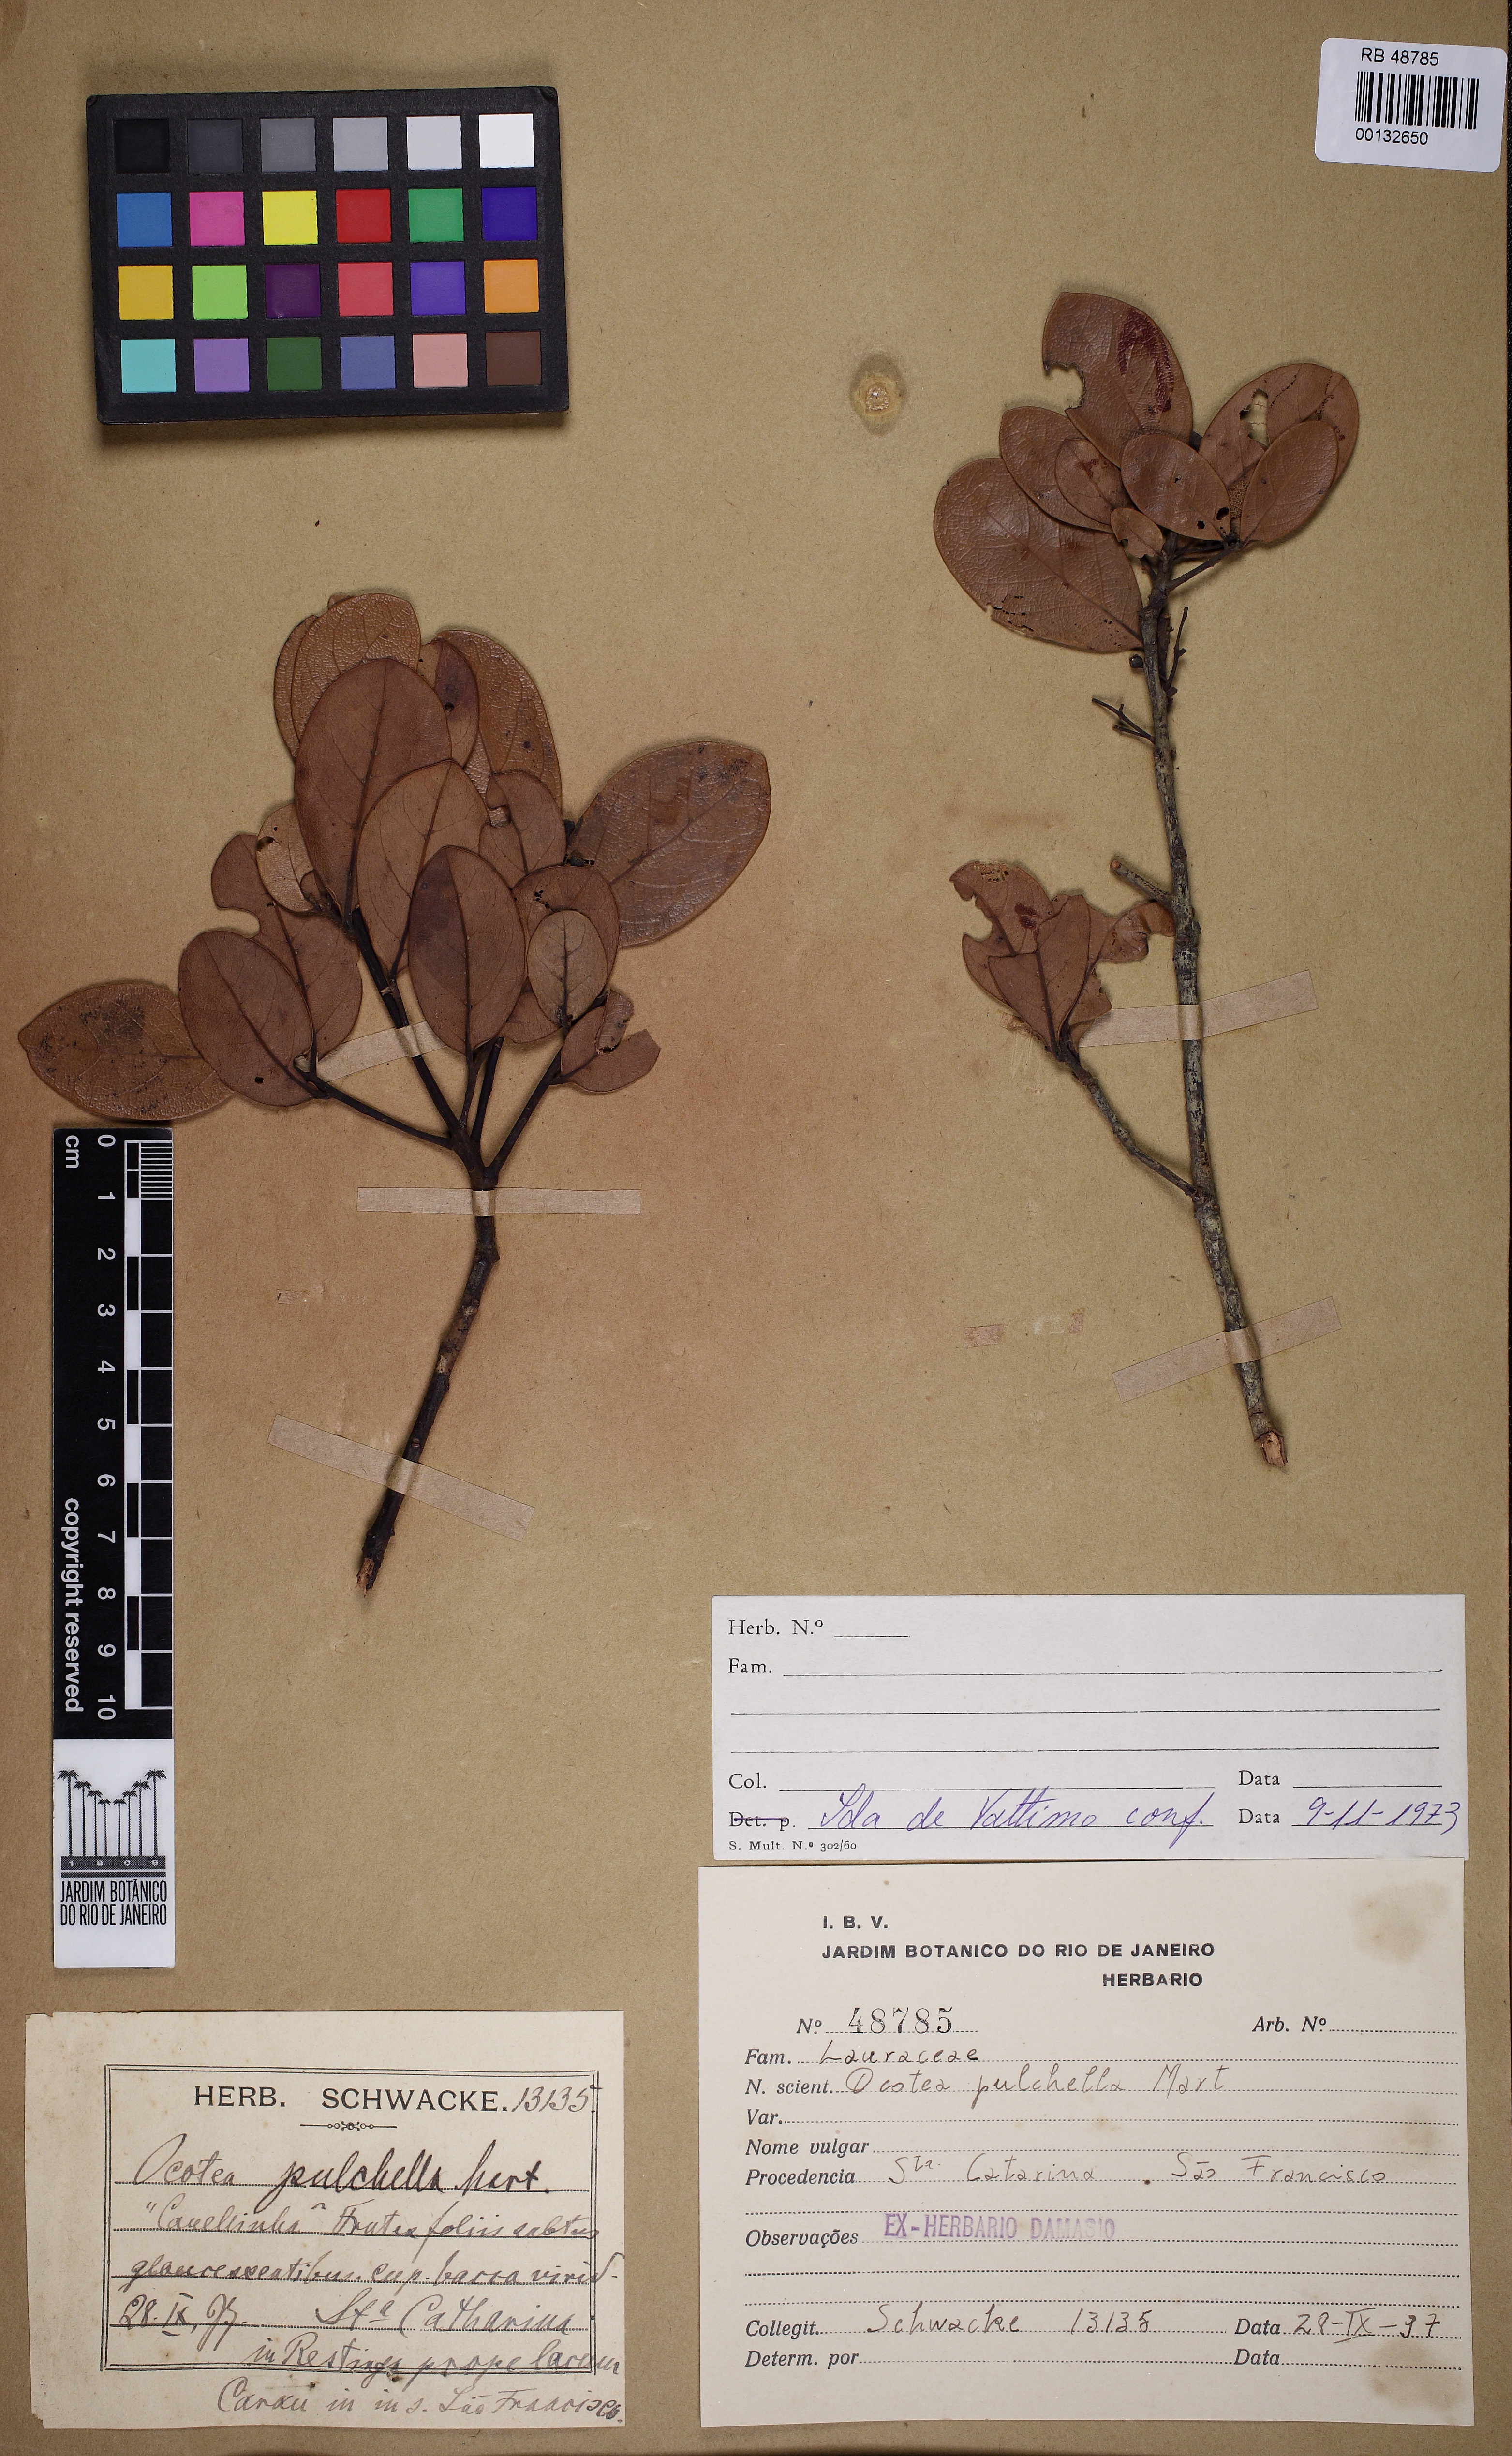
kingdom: Plantae
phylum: Tracheophyta
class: Magnoliopsida
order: Laurales
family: Lauraceae
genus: Mespilodaphne
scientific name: Mespilodaphne pulchella
